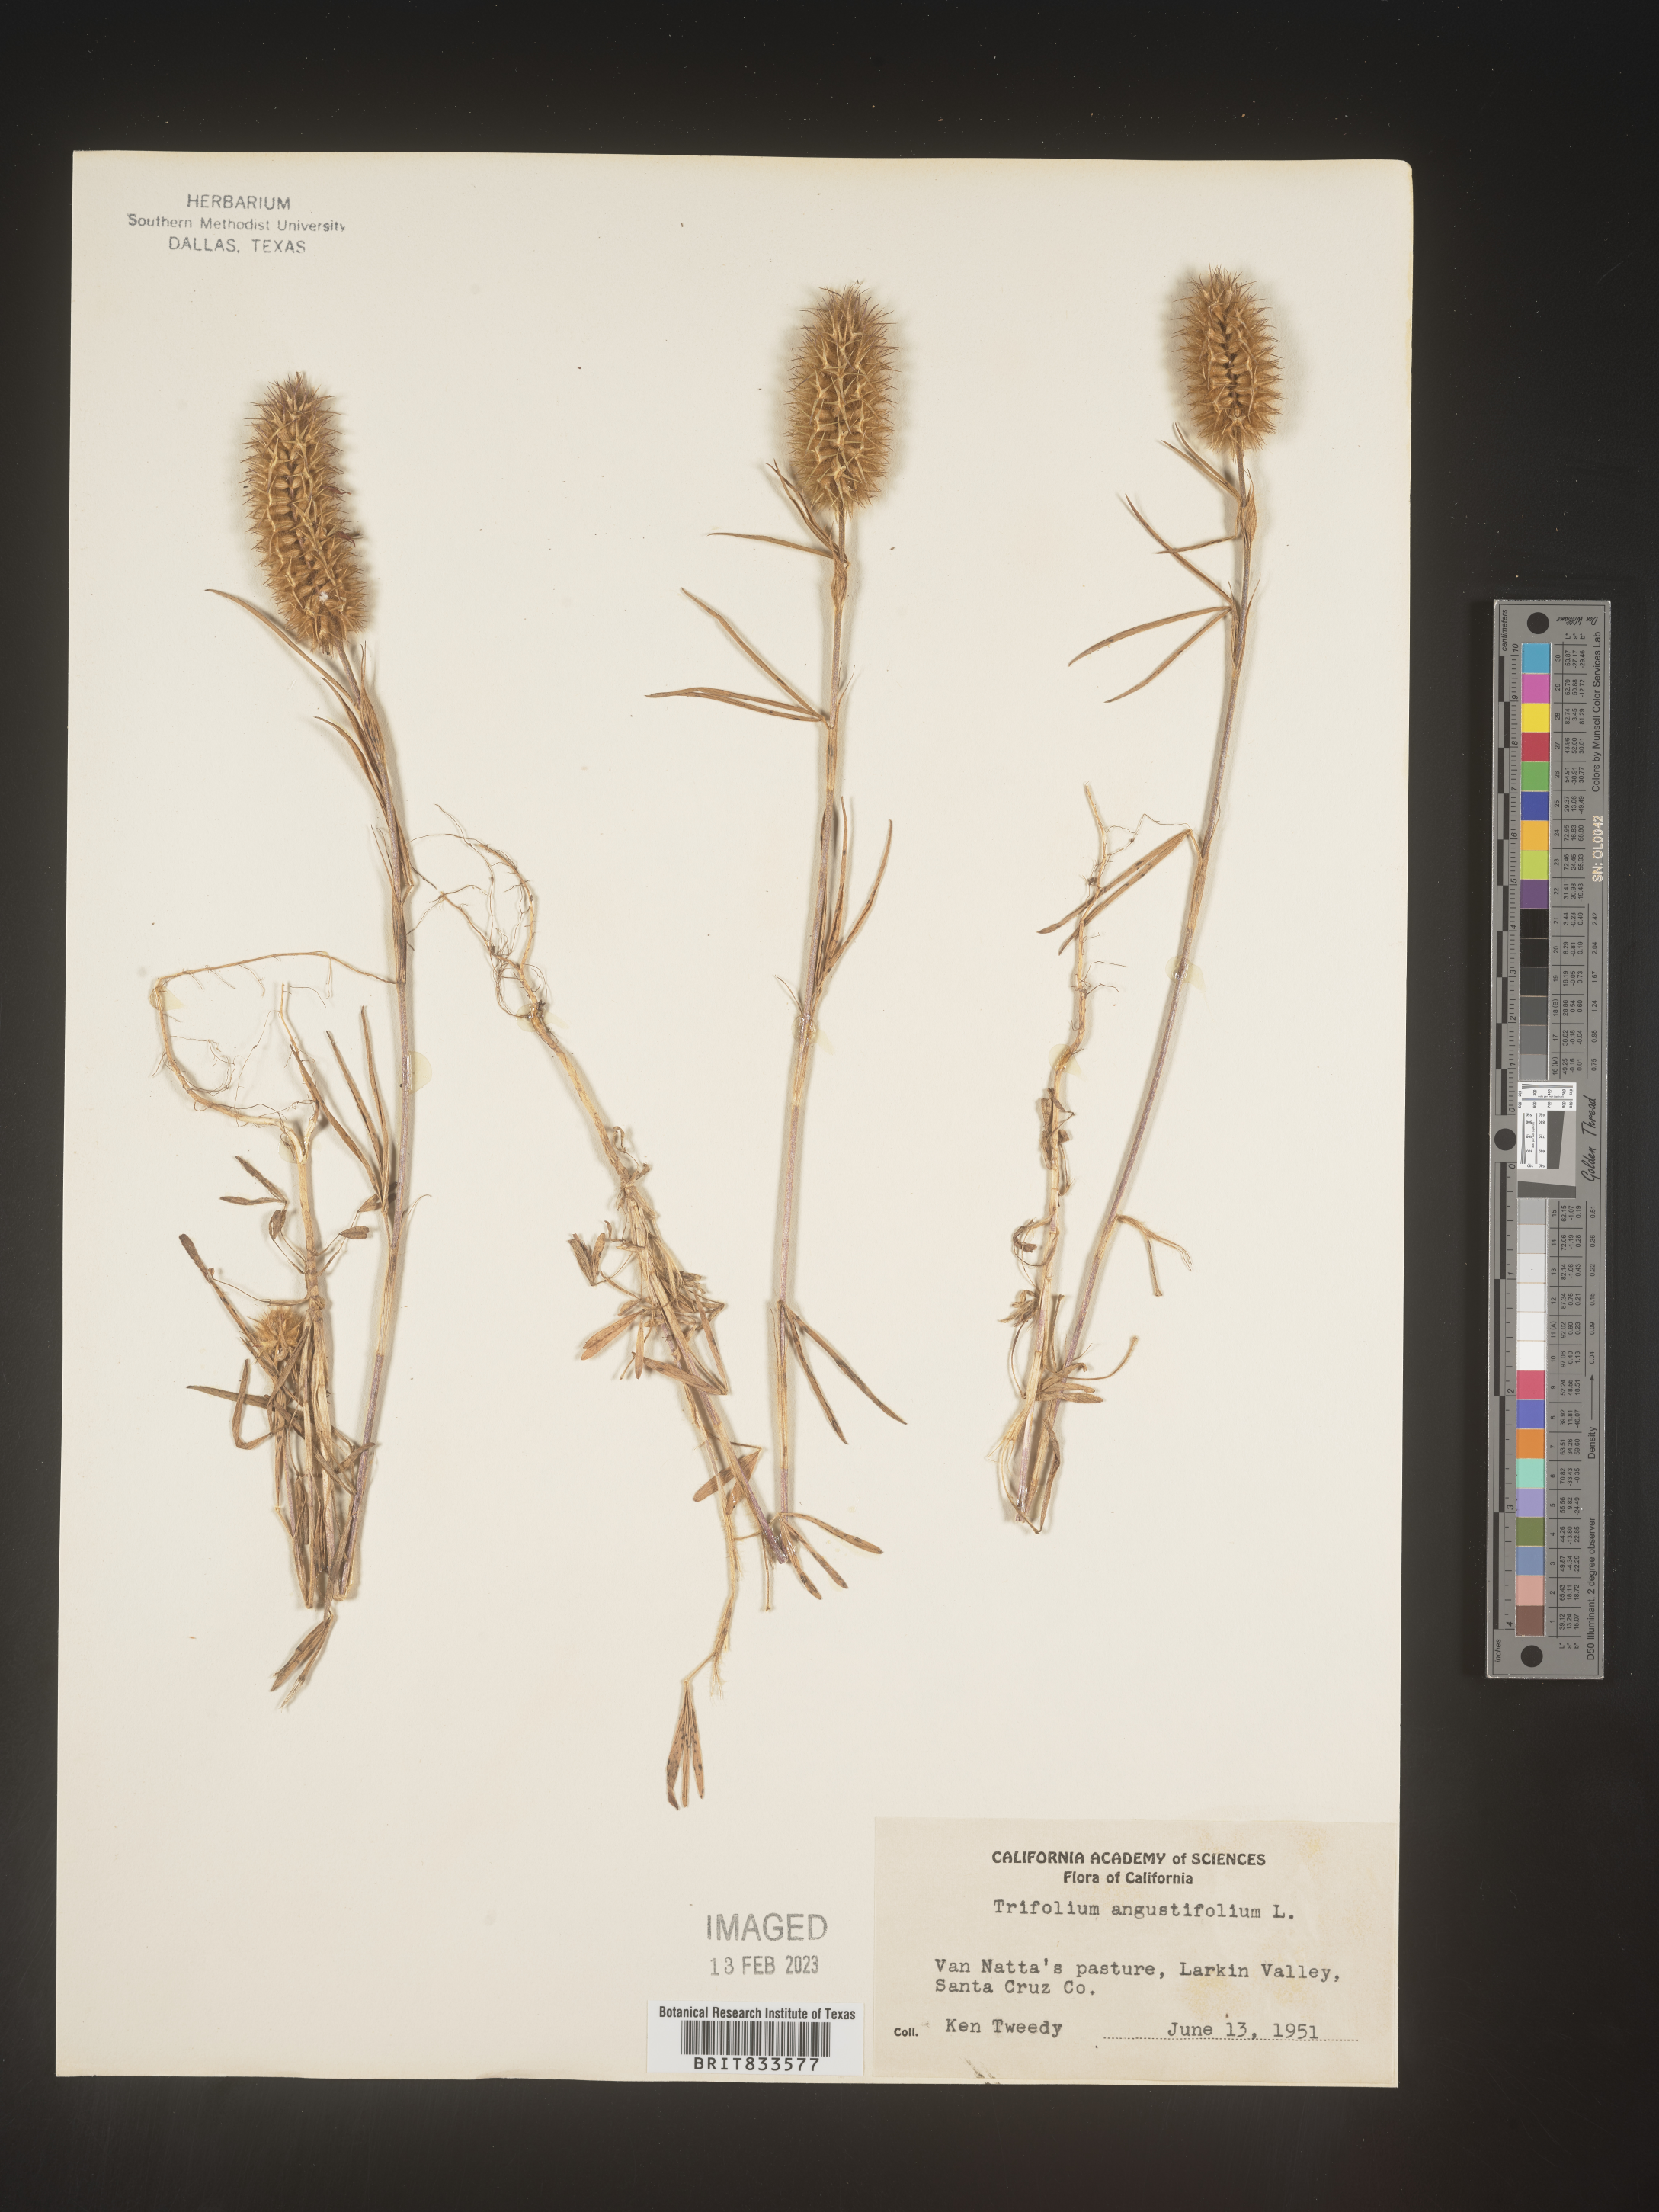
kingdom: Plantae
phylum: Tracheophyta
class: Magnoliopsida
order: Fabales
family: Fabaceae
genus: Trifolium
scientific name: Trifolium
